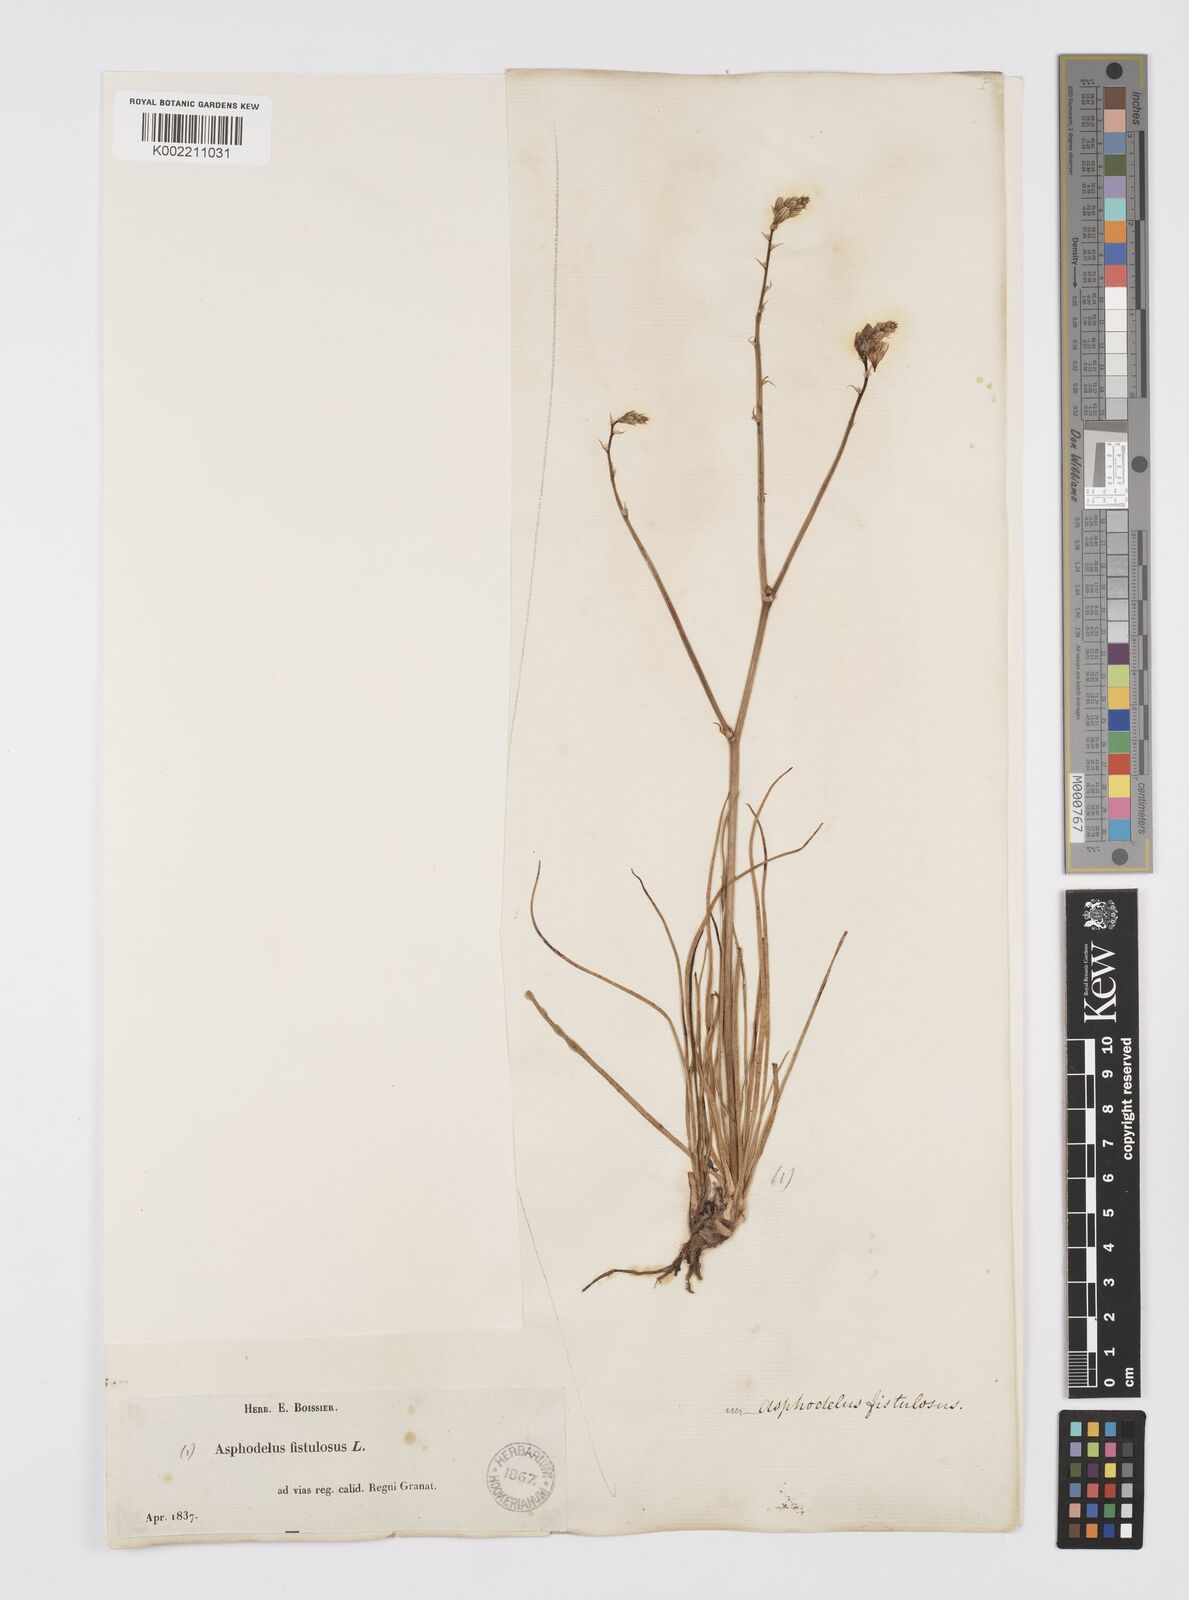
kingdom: Plantae
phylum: Tracheophyta
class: Liliopsida
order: Asparagales
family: Asphodelaceae
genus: Asphodelus
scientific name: Asphodelus fistulosus
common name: Onionweed
